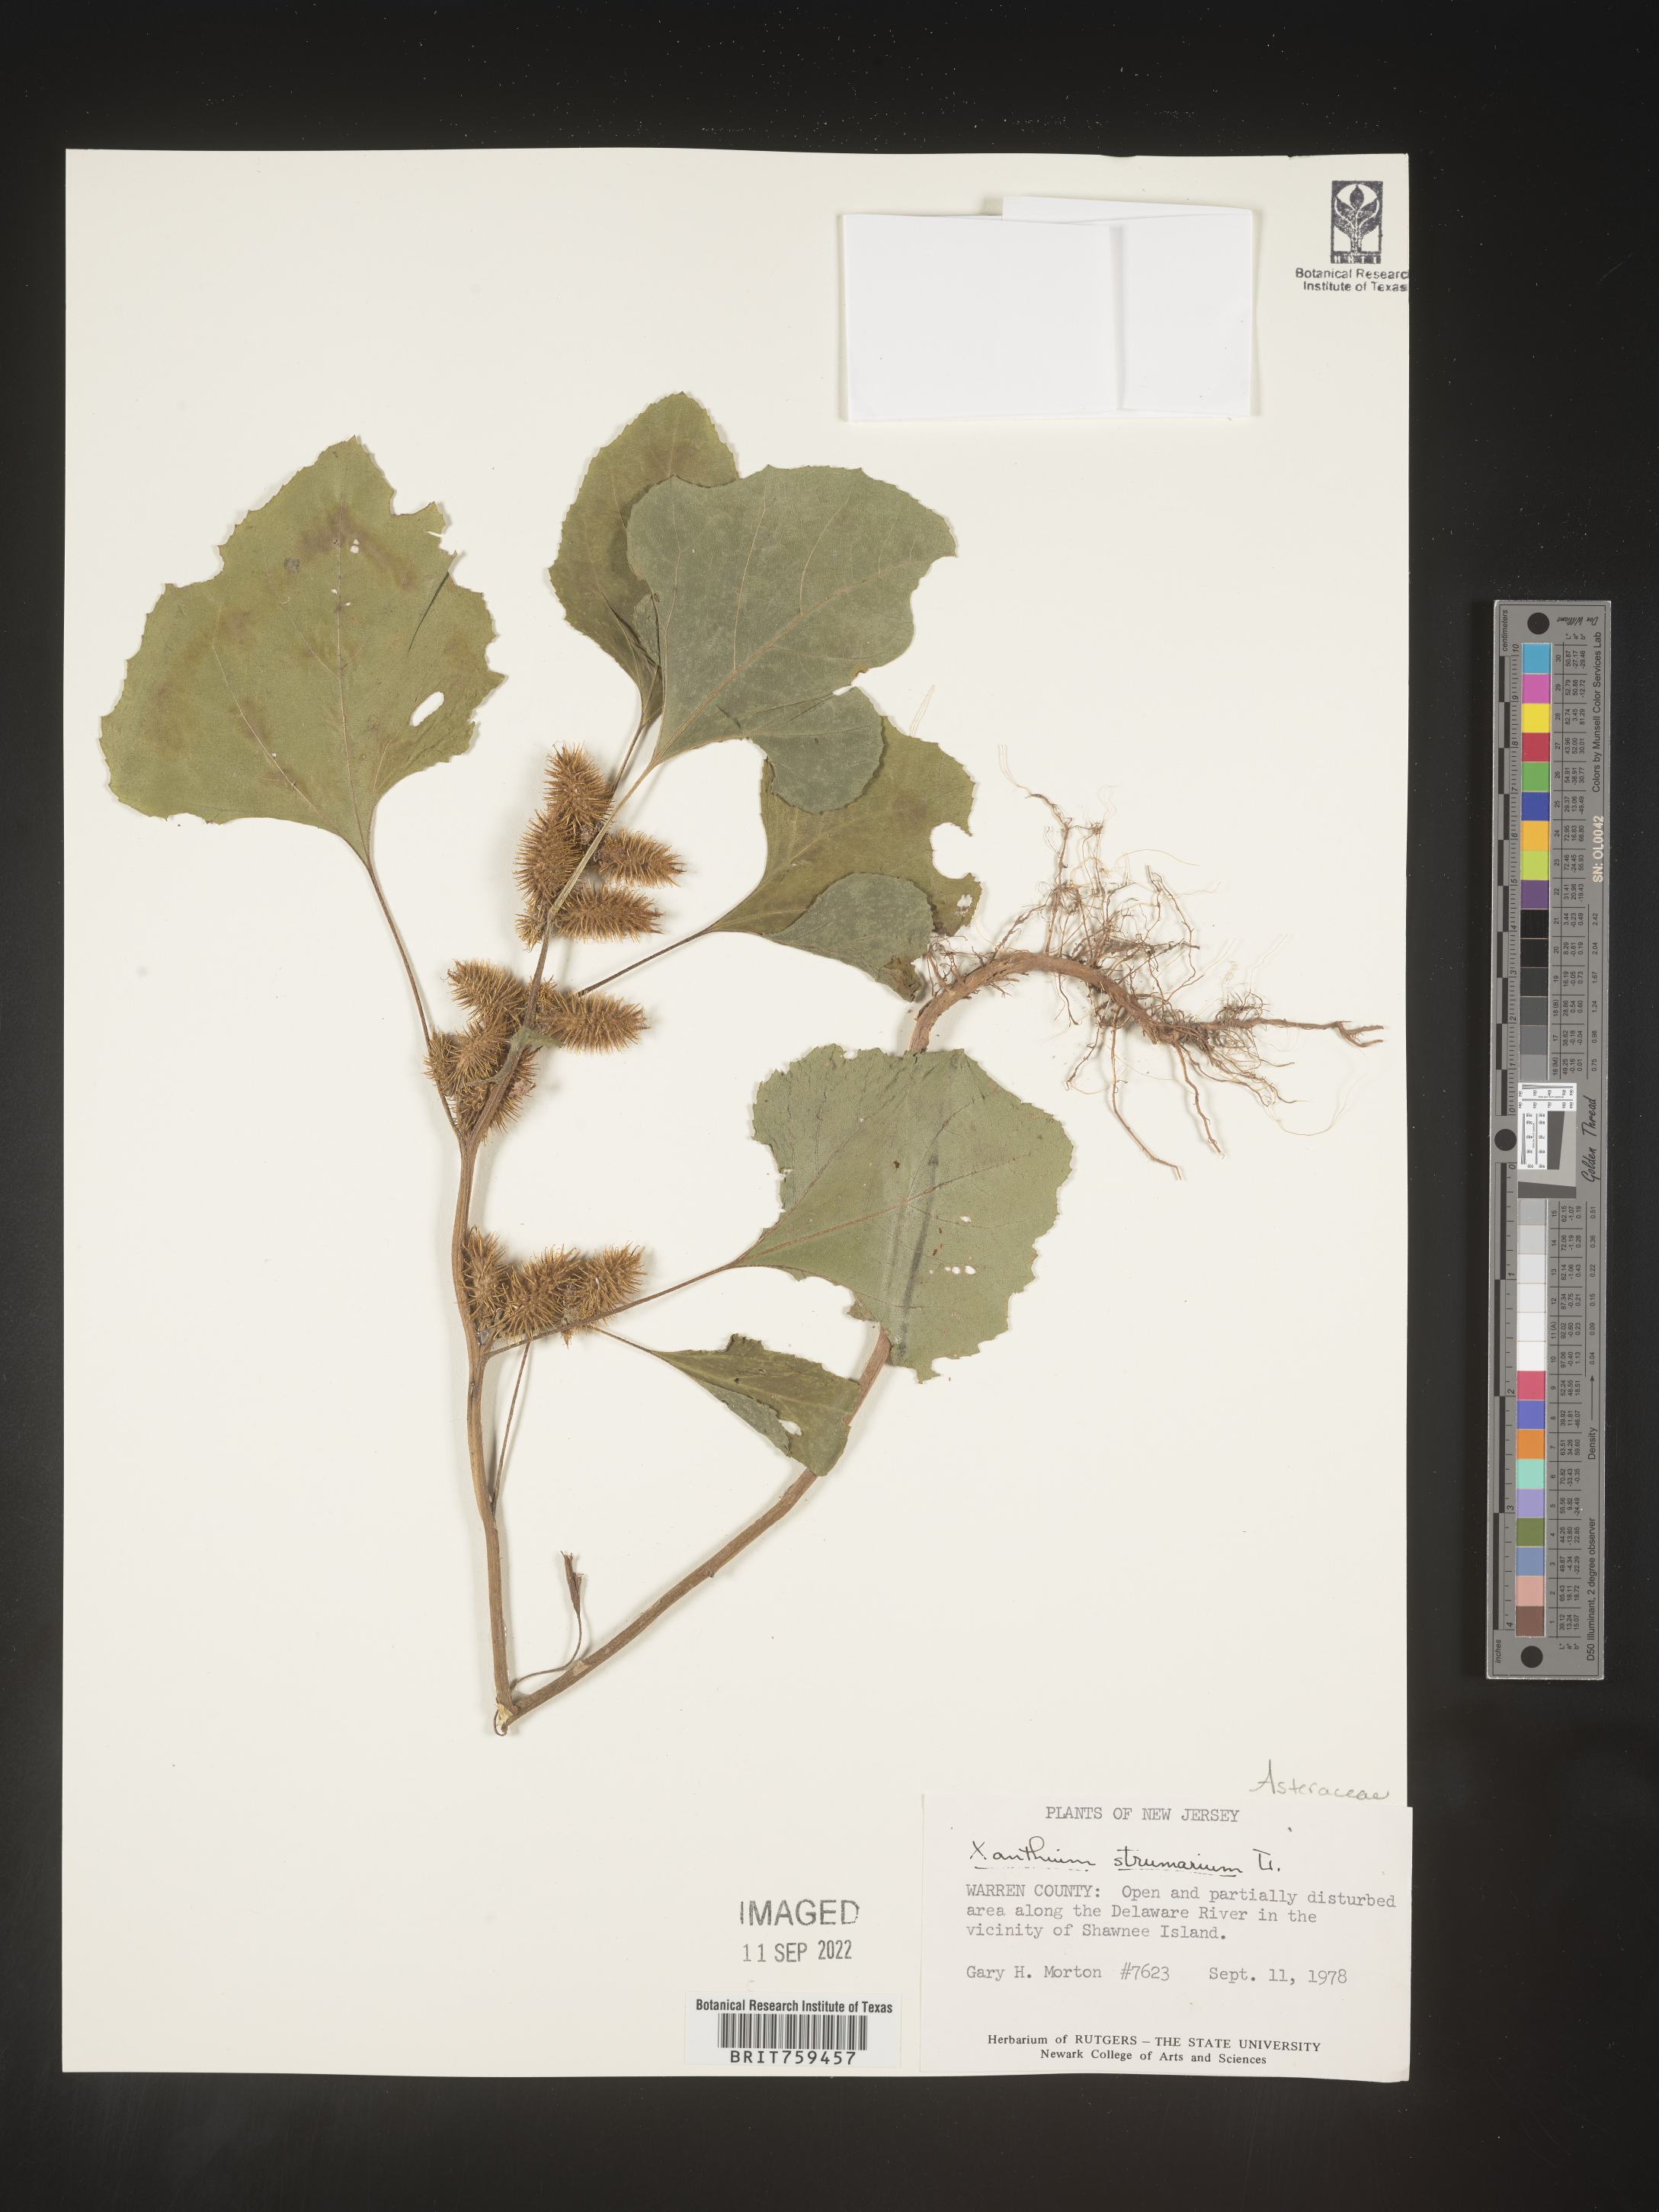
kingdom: Plantae
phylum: Tracheophyta
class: Magnoliopsida
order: Asterales
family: Asteraceae
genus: Xanthium
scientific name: Xanthium strumarium
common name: Rough cocklebur
